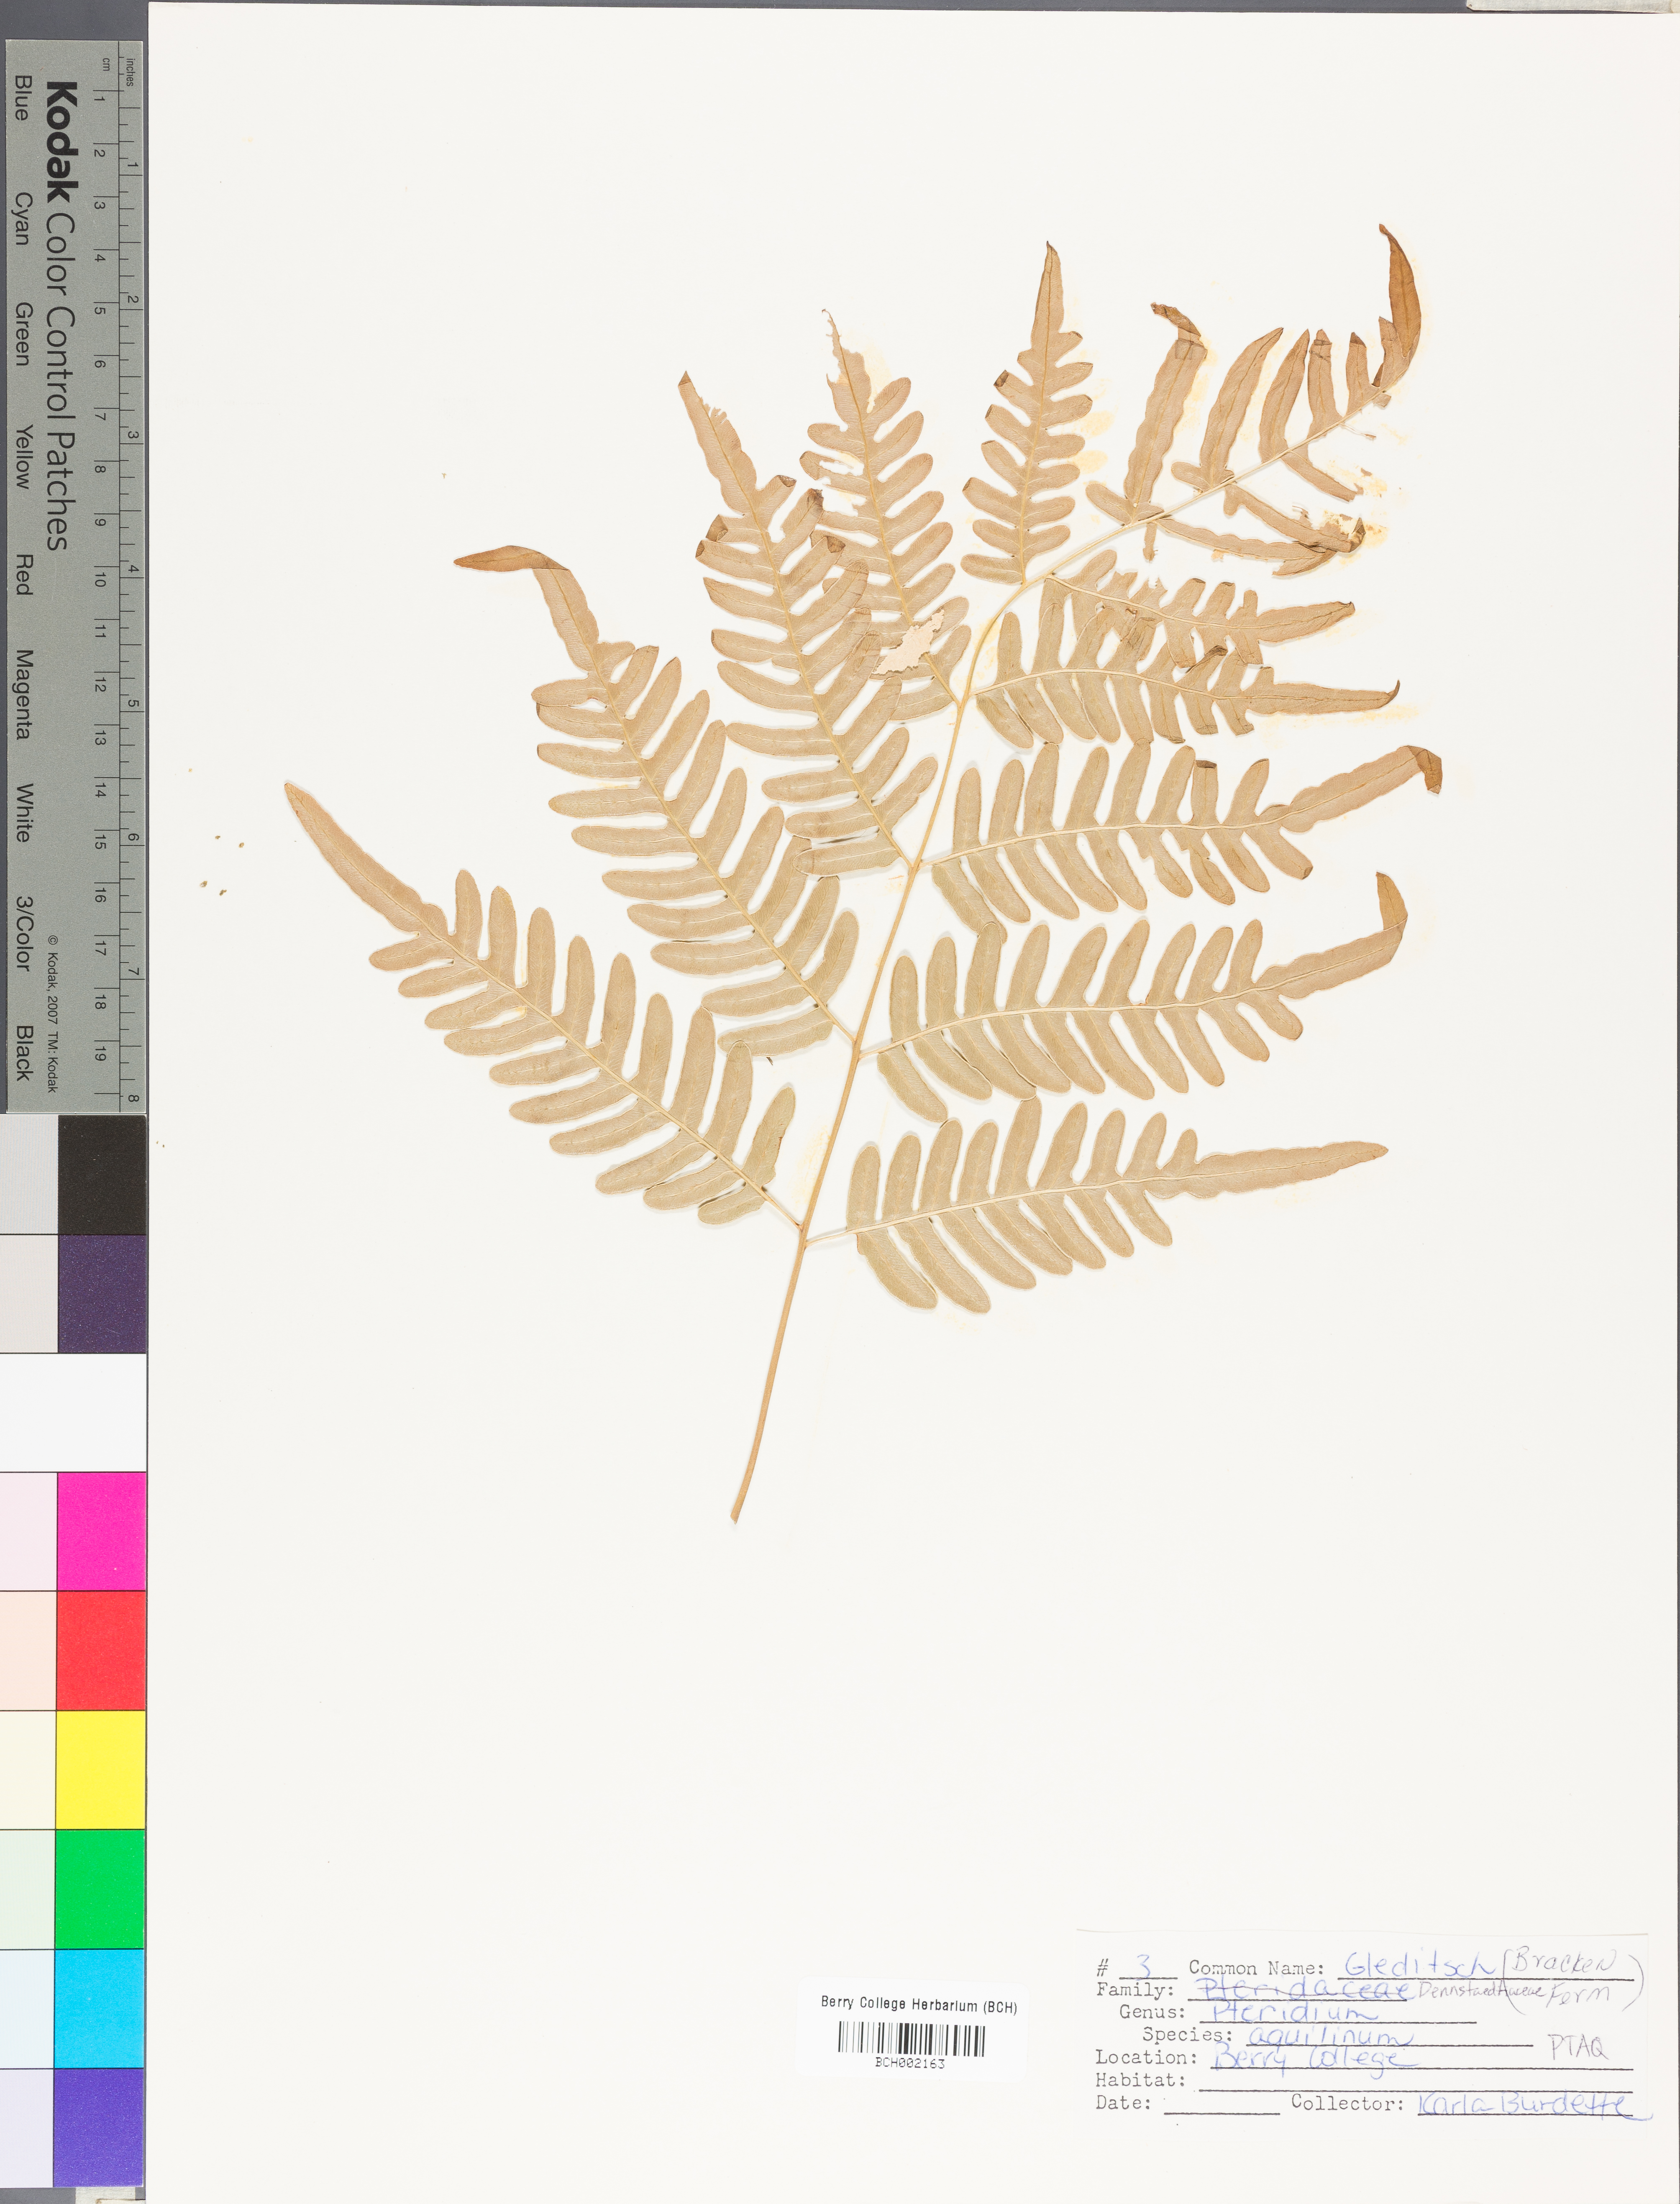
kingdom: Plantae
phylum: Tracheophyta
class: Polypodiopsida
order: Polypodiales
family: Dennstaedtiaceae
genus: Pteridium
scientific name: Pteridium aquilinum
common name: Bracken
